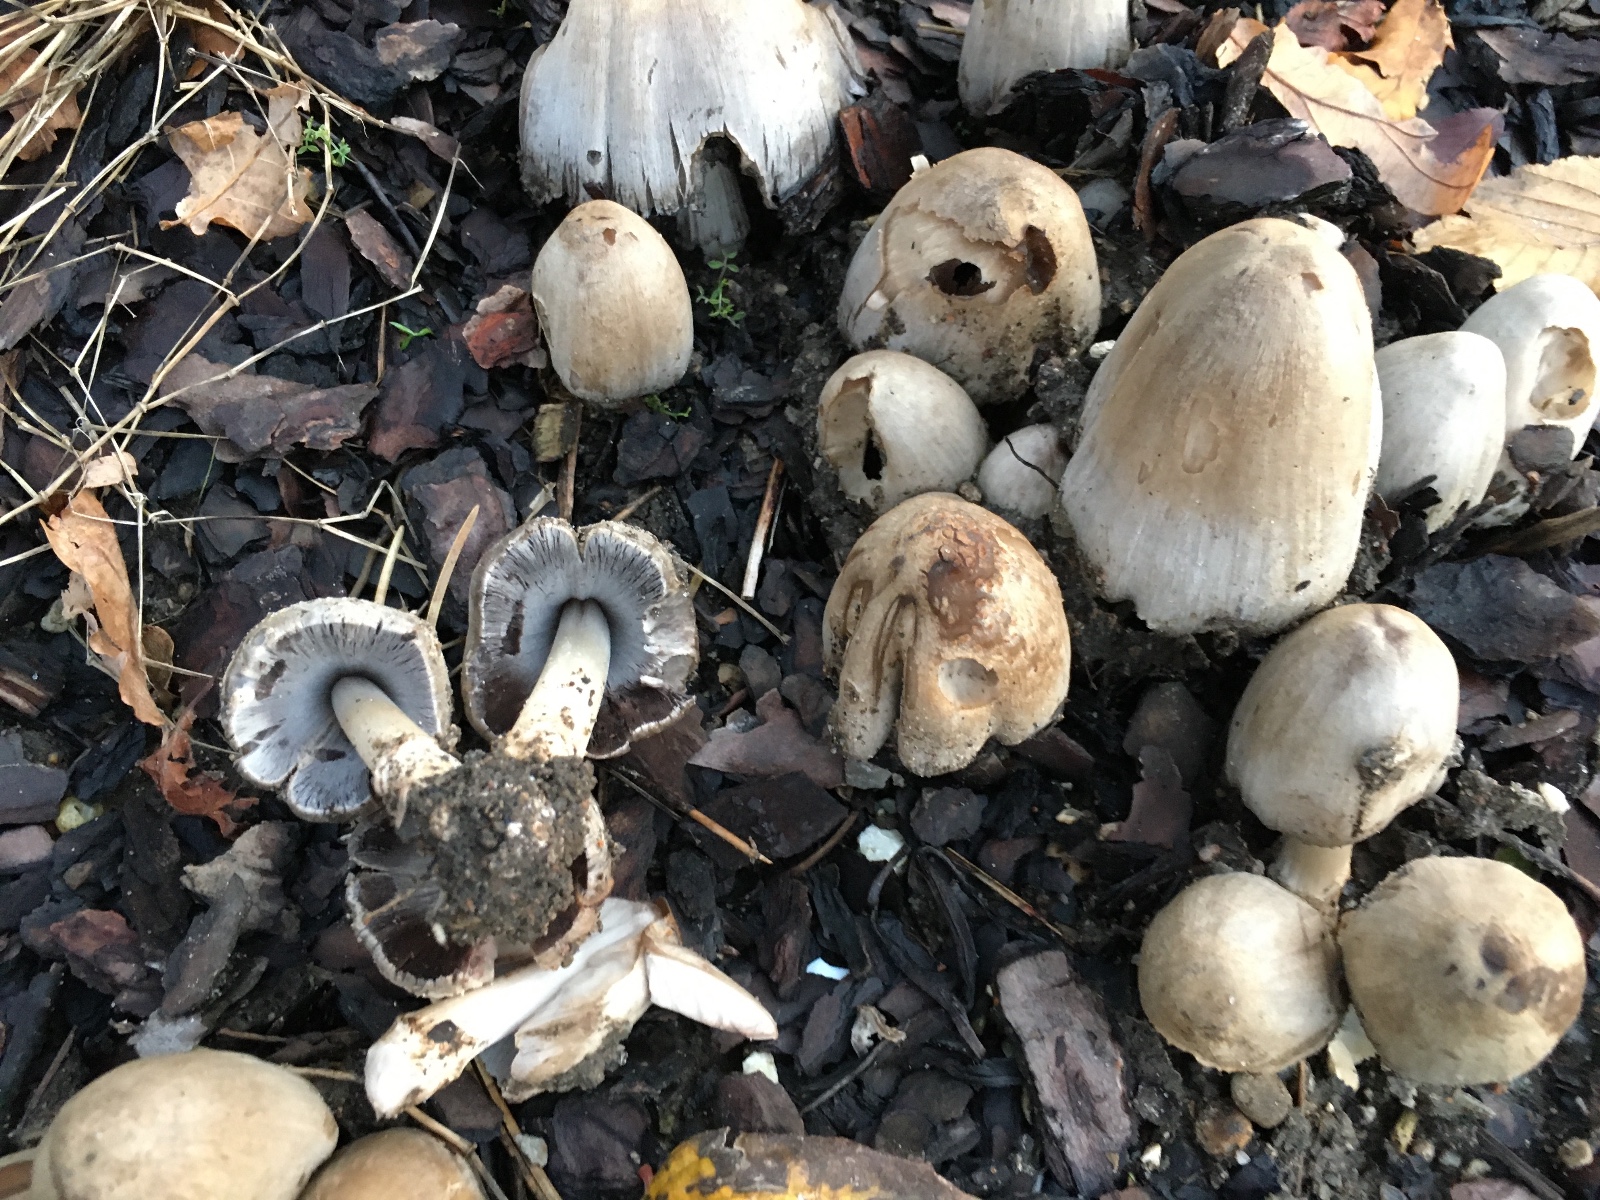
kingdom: Fungi
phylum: Basidiomycota
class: Agaricomycetes
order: Agaricales
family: Psathyrellaceae
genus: Coprinopsis
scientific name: Coprinopsis atramentaria
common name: almindelig blækhat
